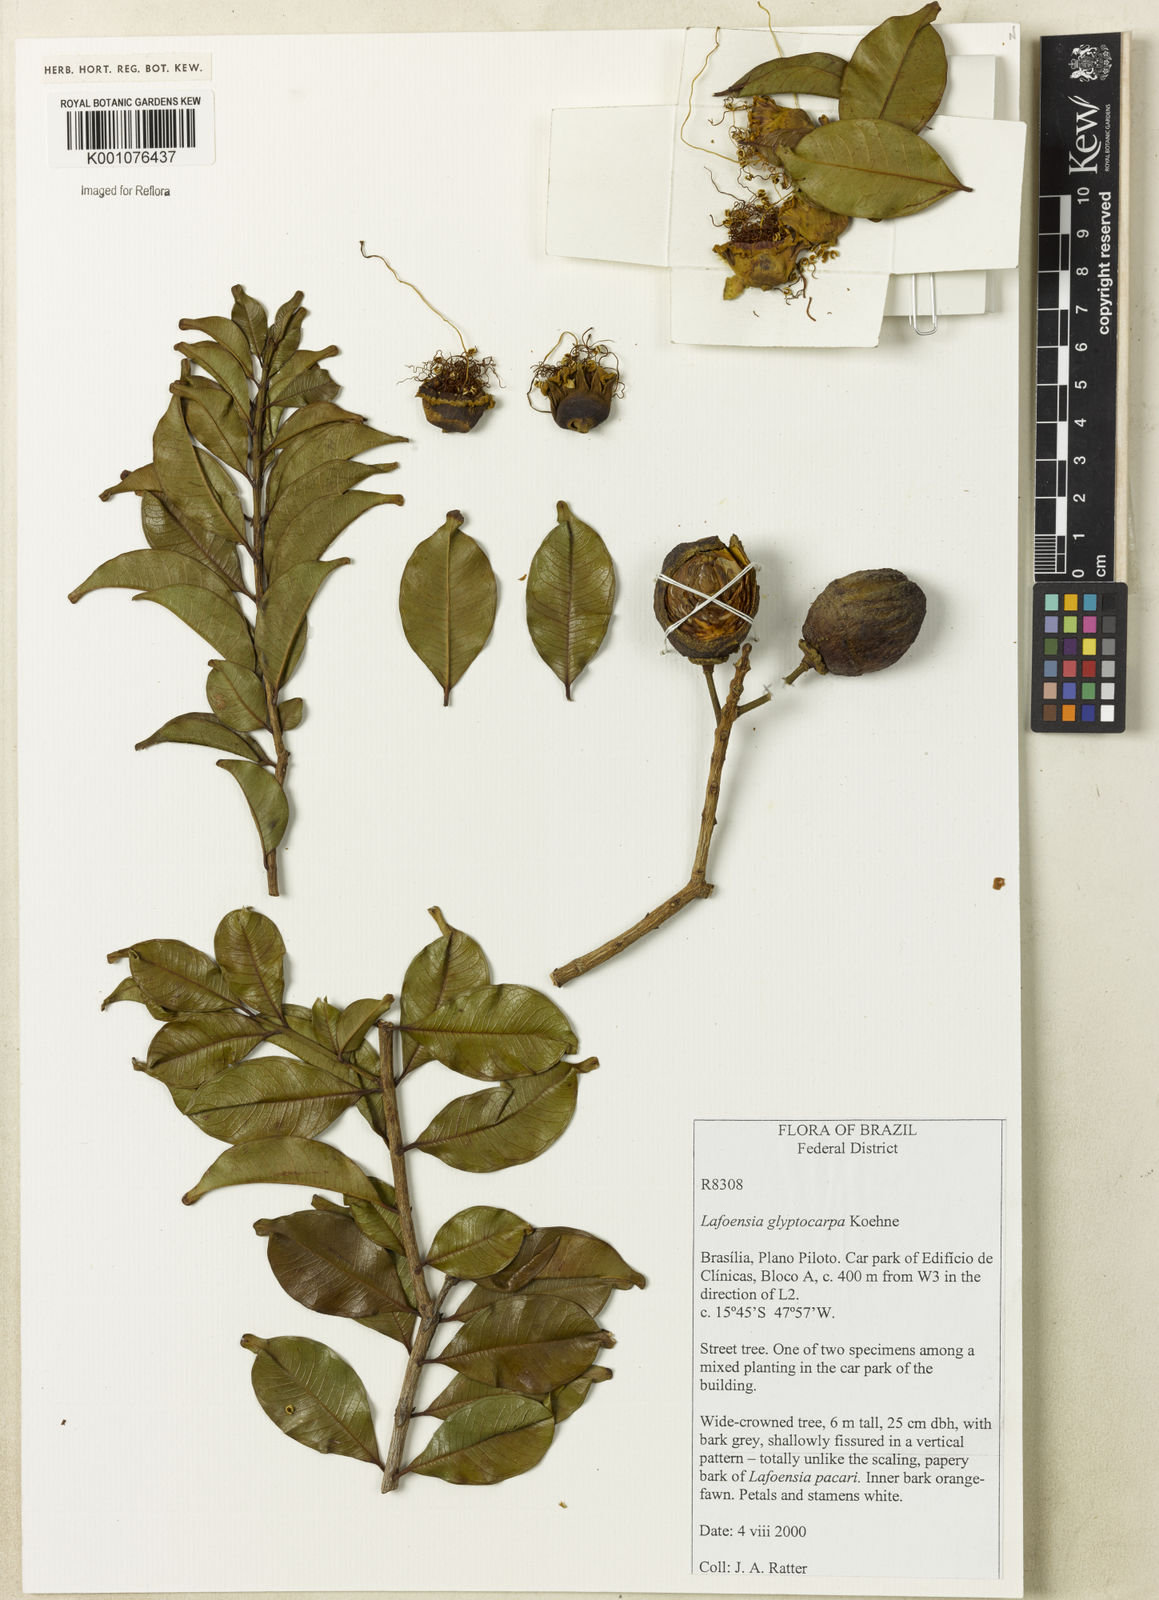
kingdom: Plantae
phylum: Tracheophyta
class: Magnoliopsida
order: Myrtales
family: Lythraceae
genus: Lafoensia
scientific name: Lafoensia
